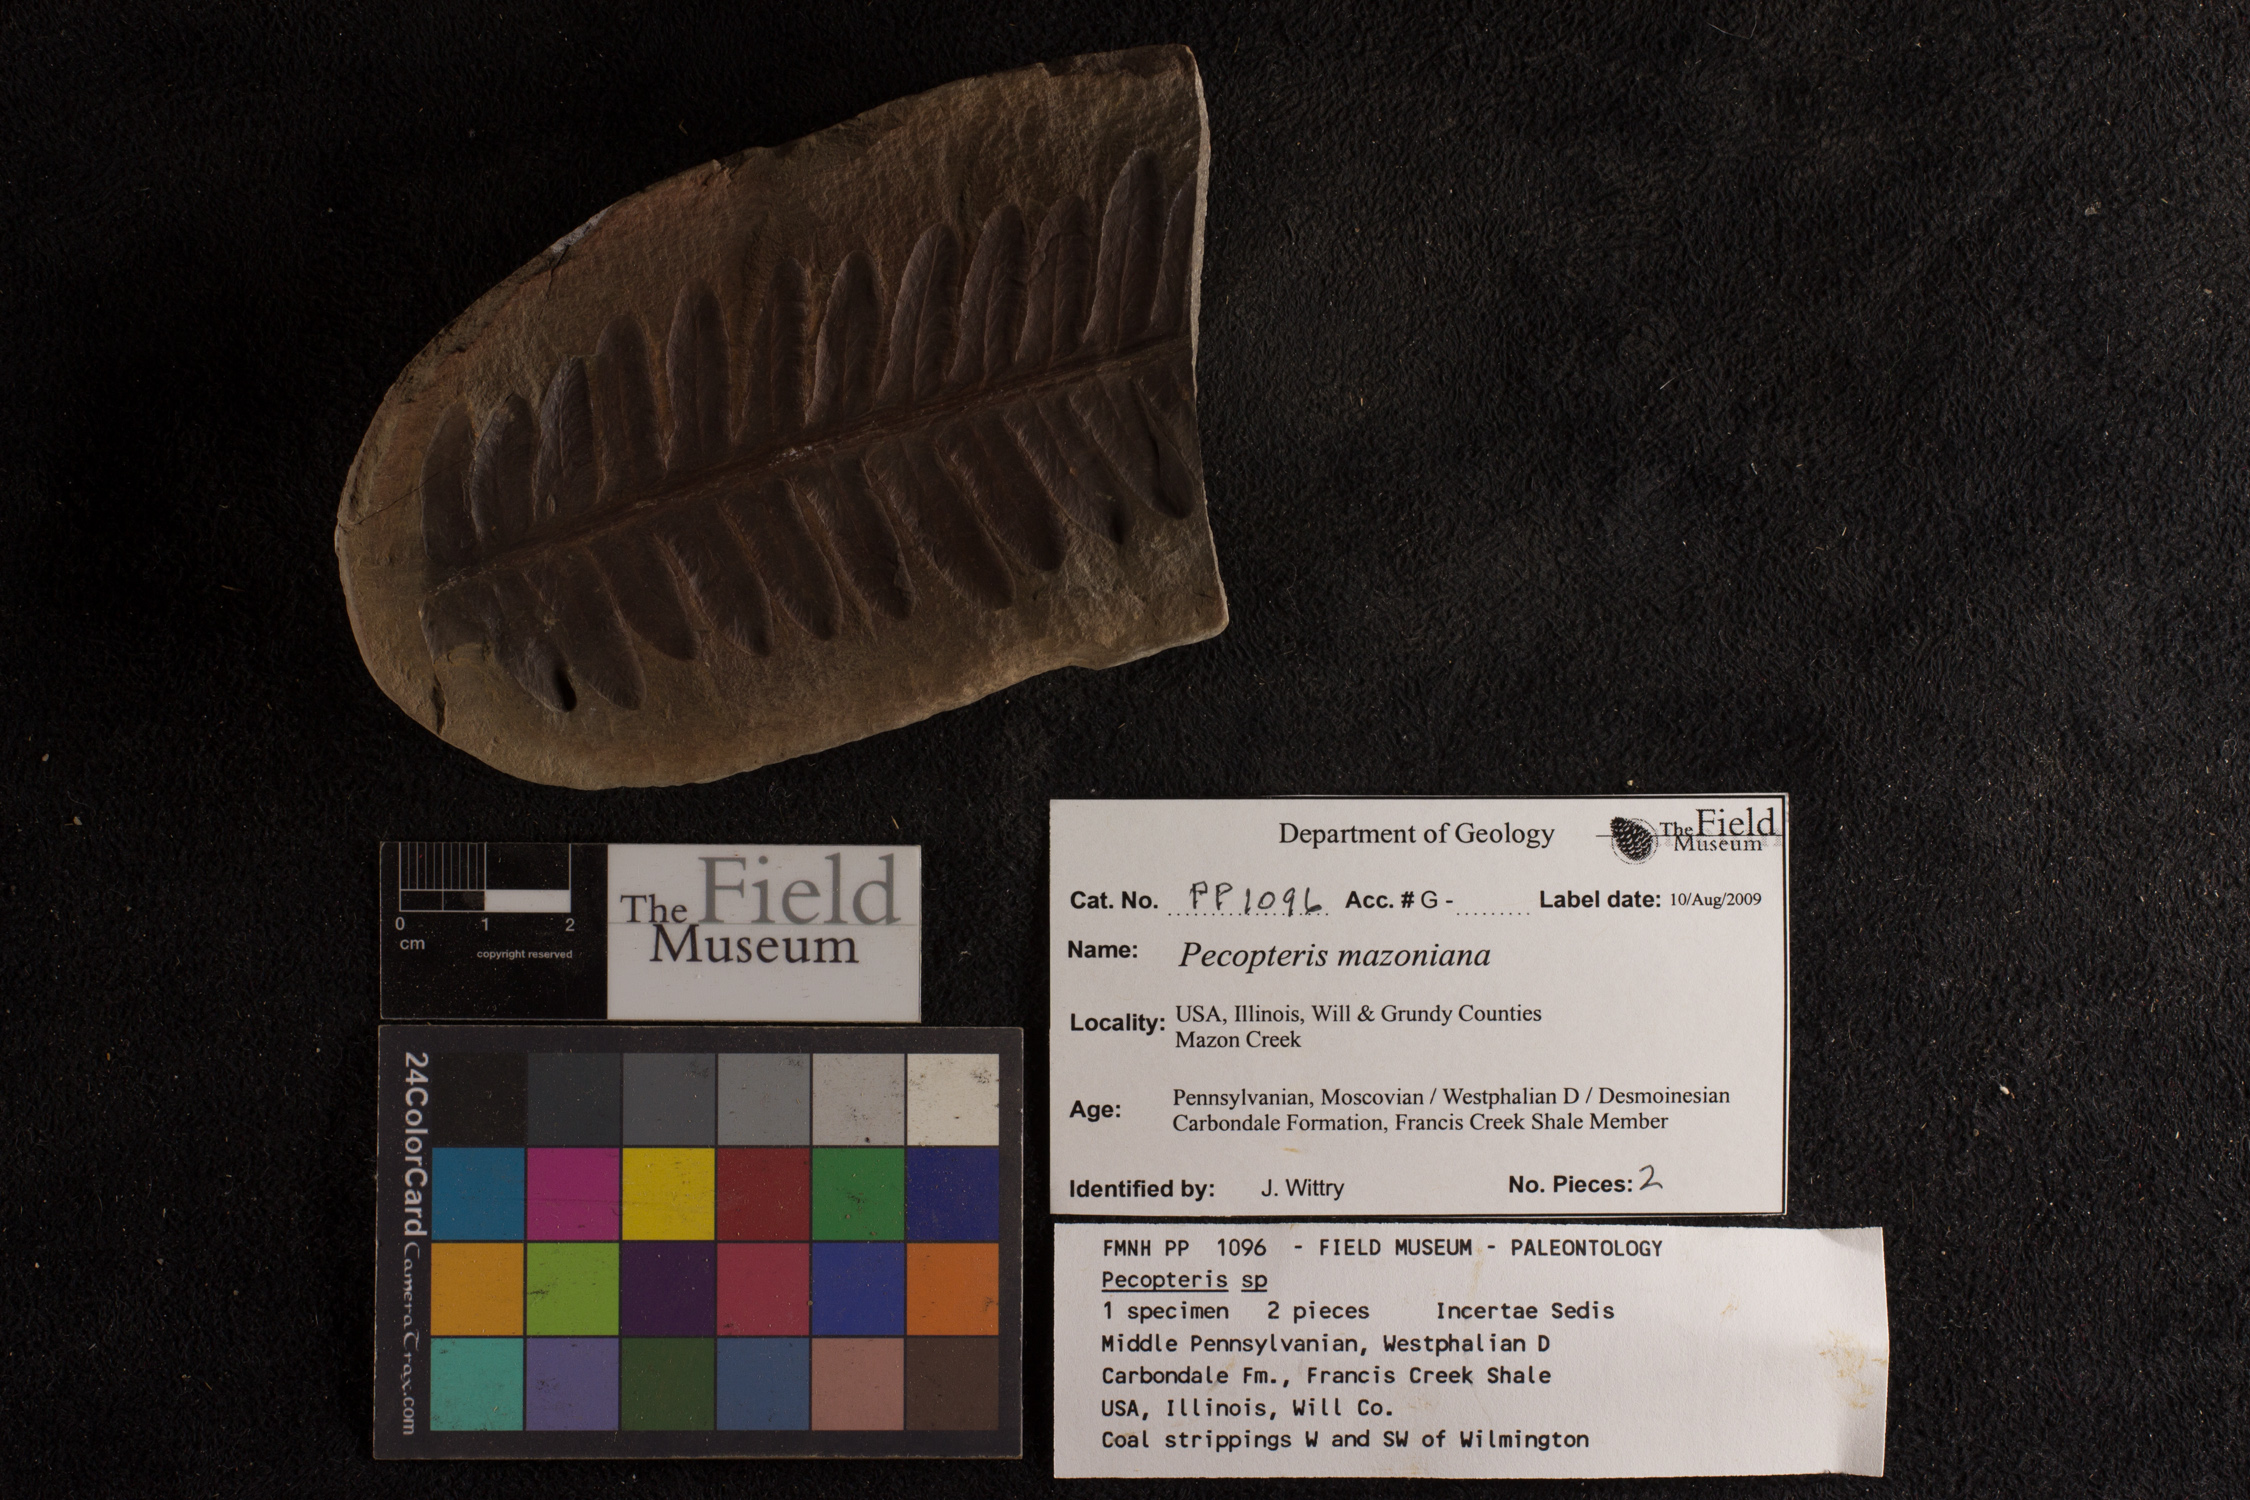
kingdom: Plantae
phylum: Tracheophyta
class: Polypodiopsida
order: Marattiales
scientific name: Marattiales
